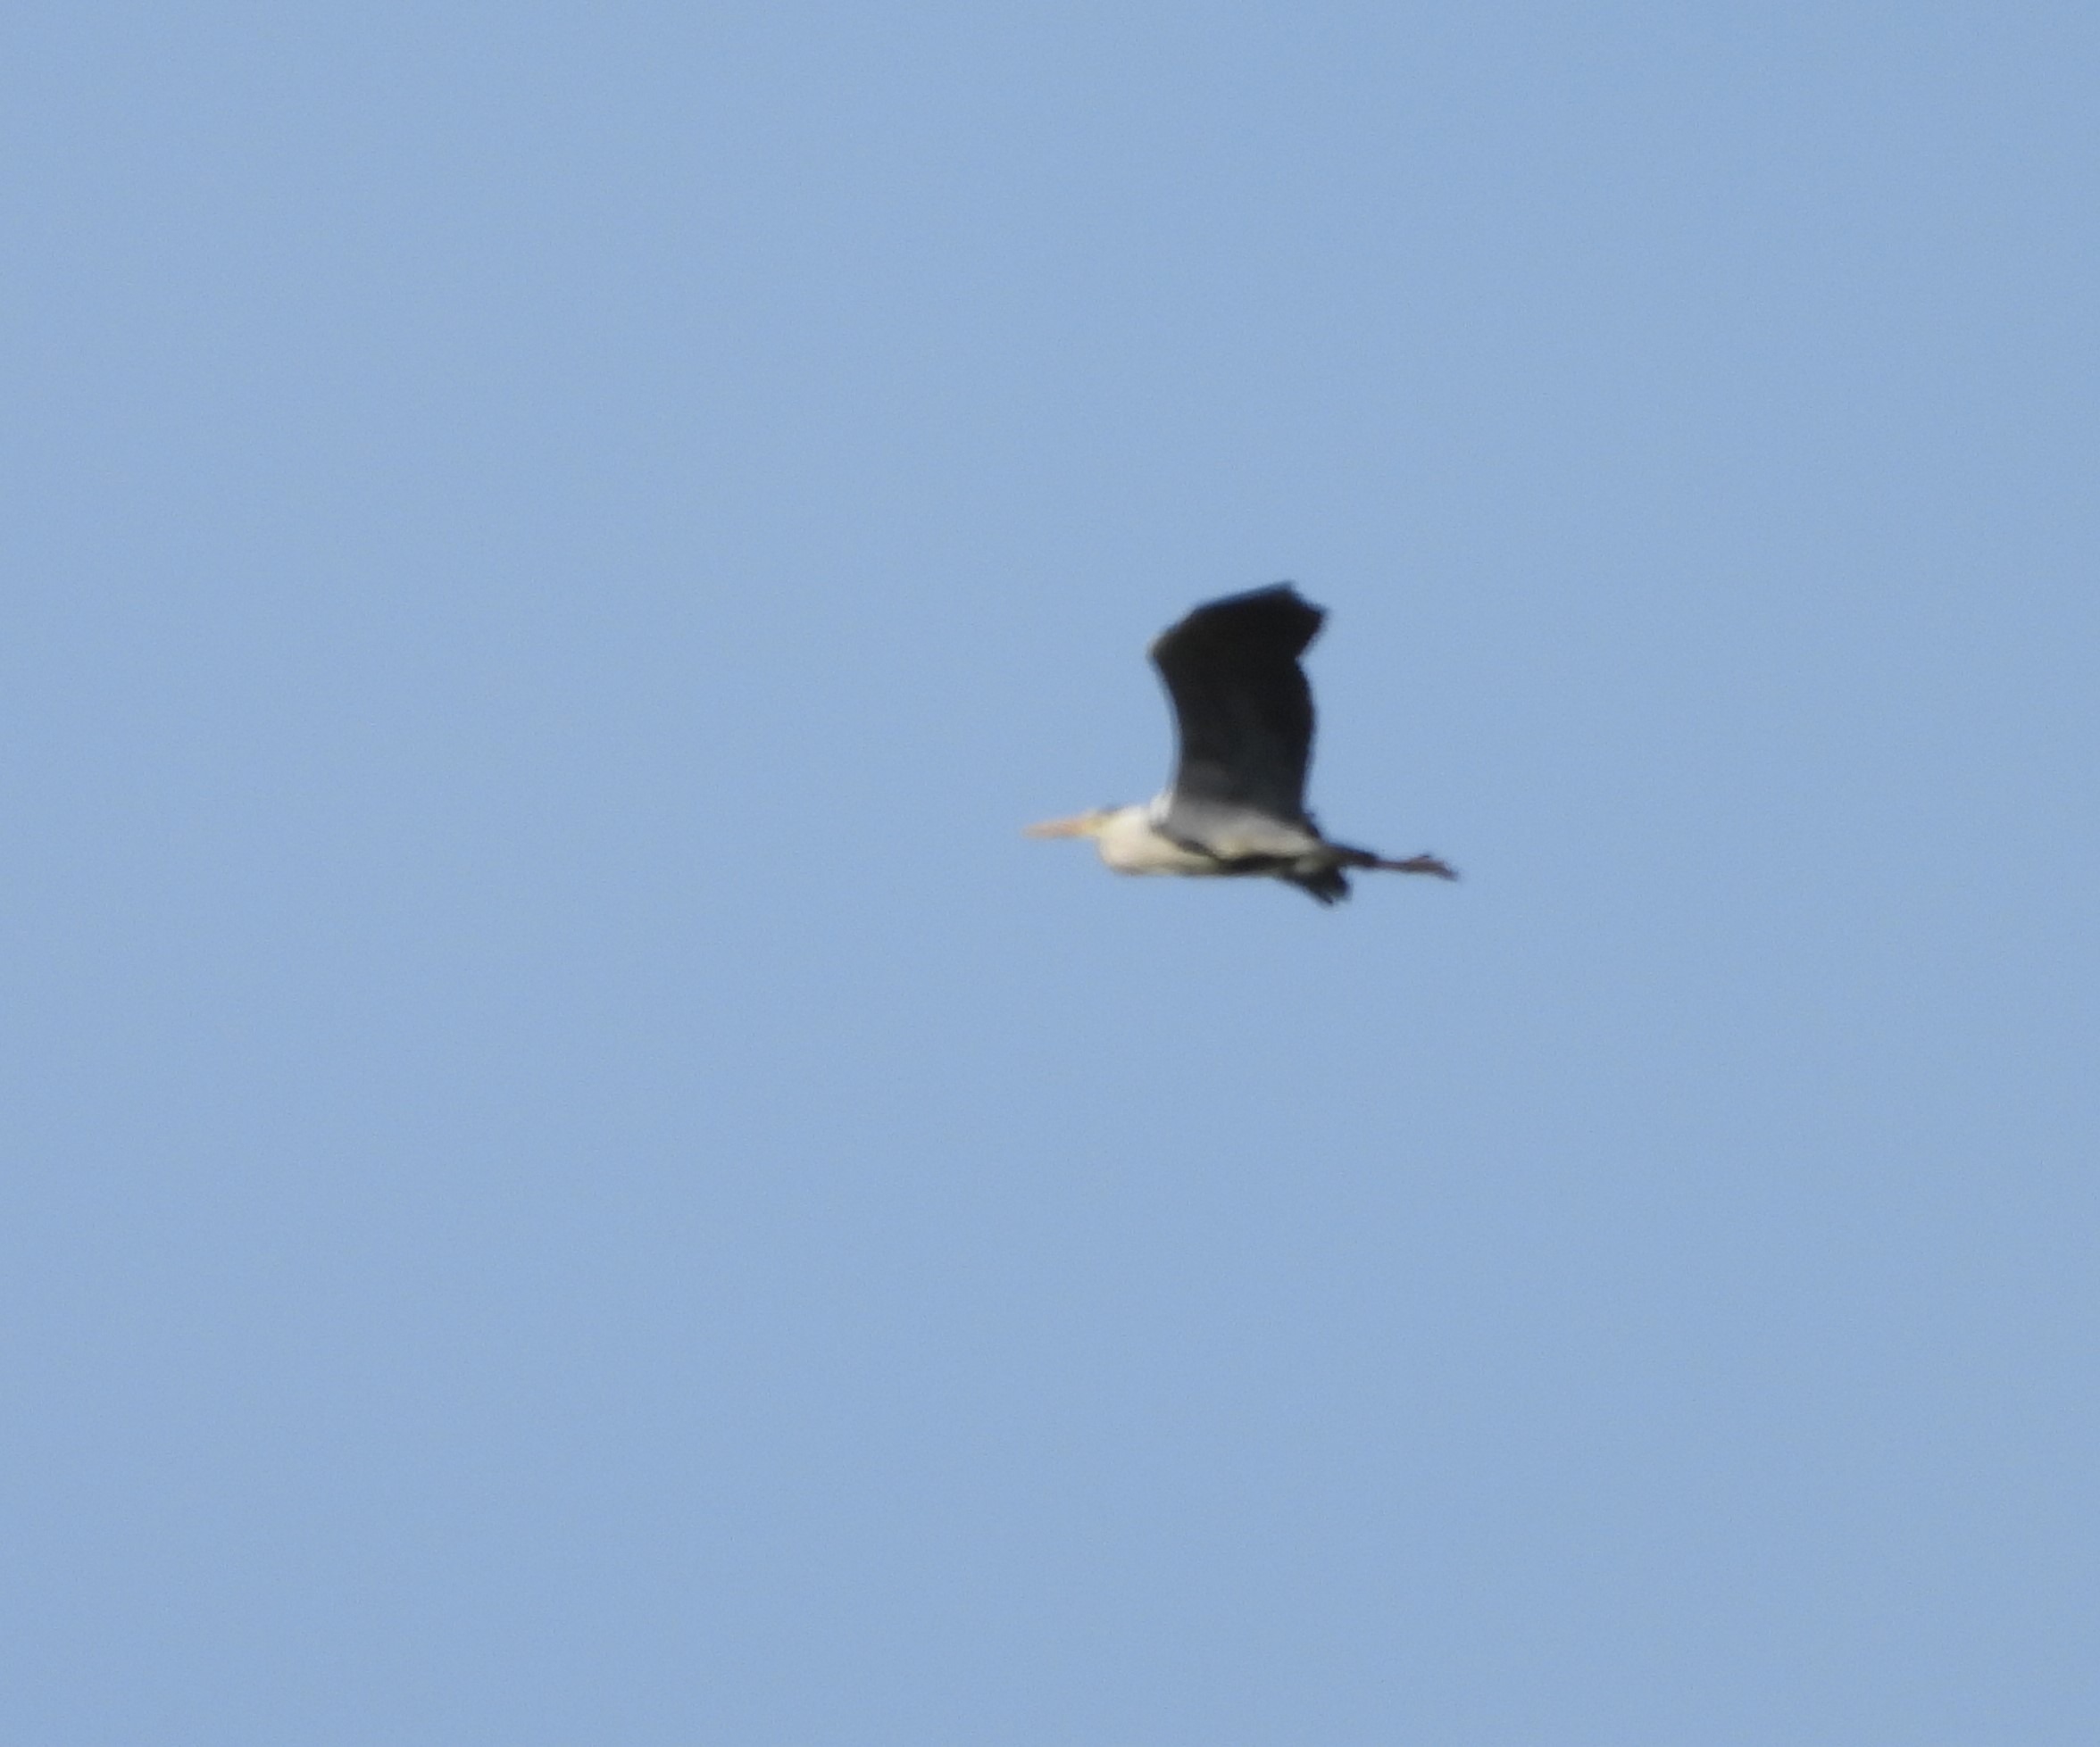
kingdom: Animalia
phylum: Chordata
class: Aves
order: Pelecaniformes
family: Ardeidae
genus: Ardea
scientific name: Ardea cinerea
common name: Fiskehejre
